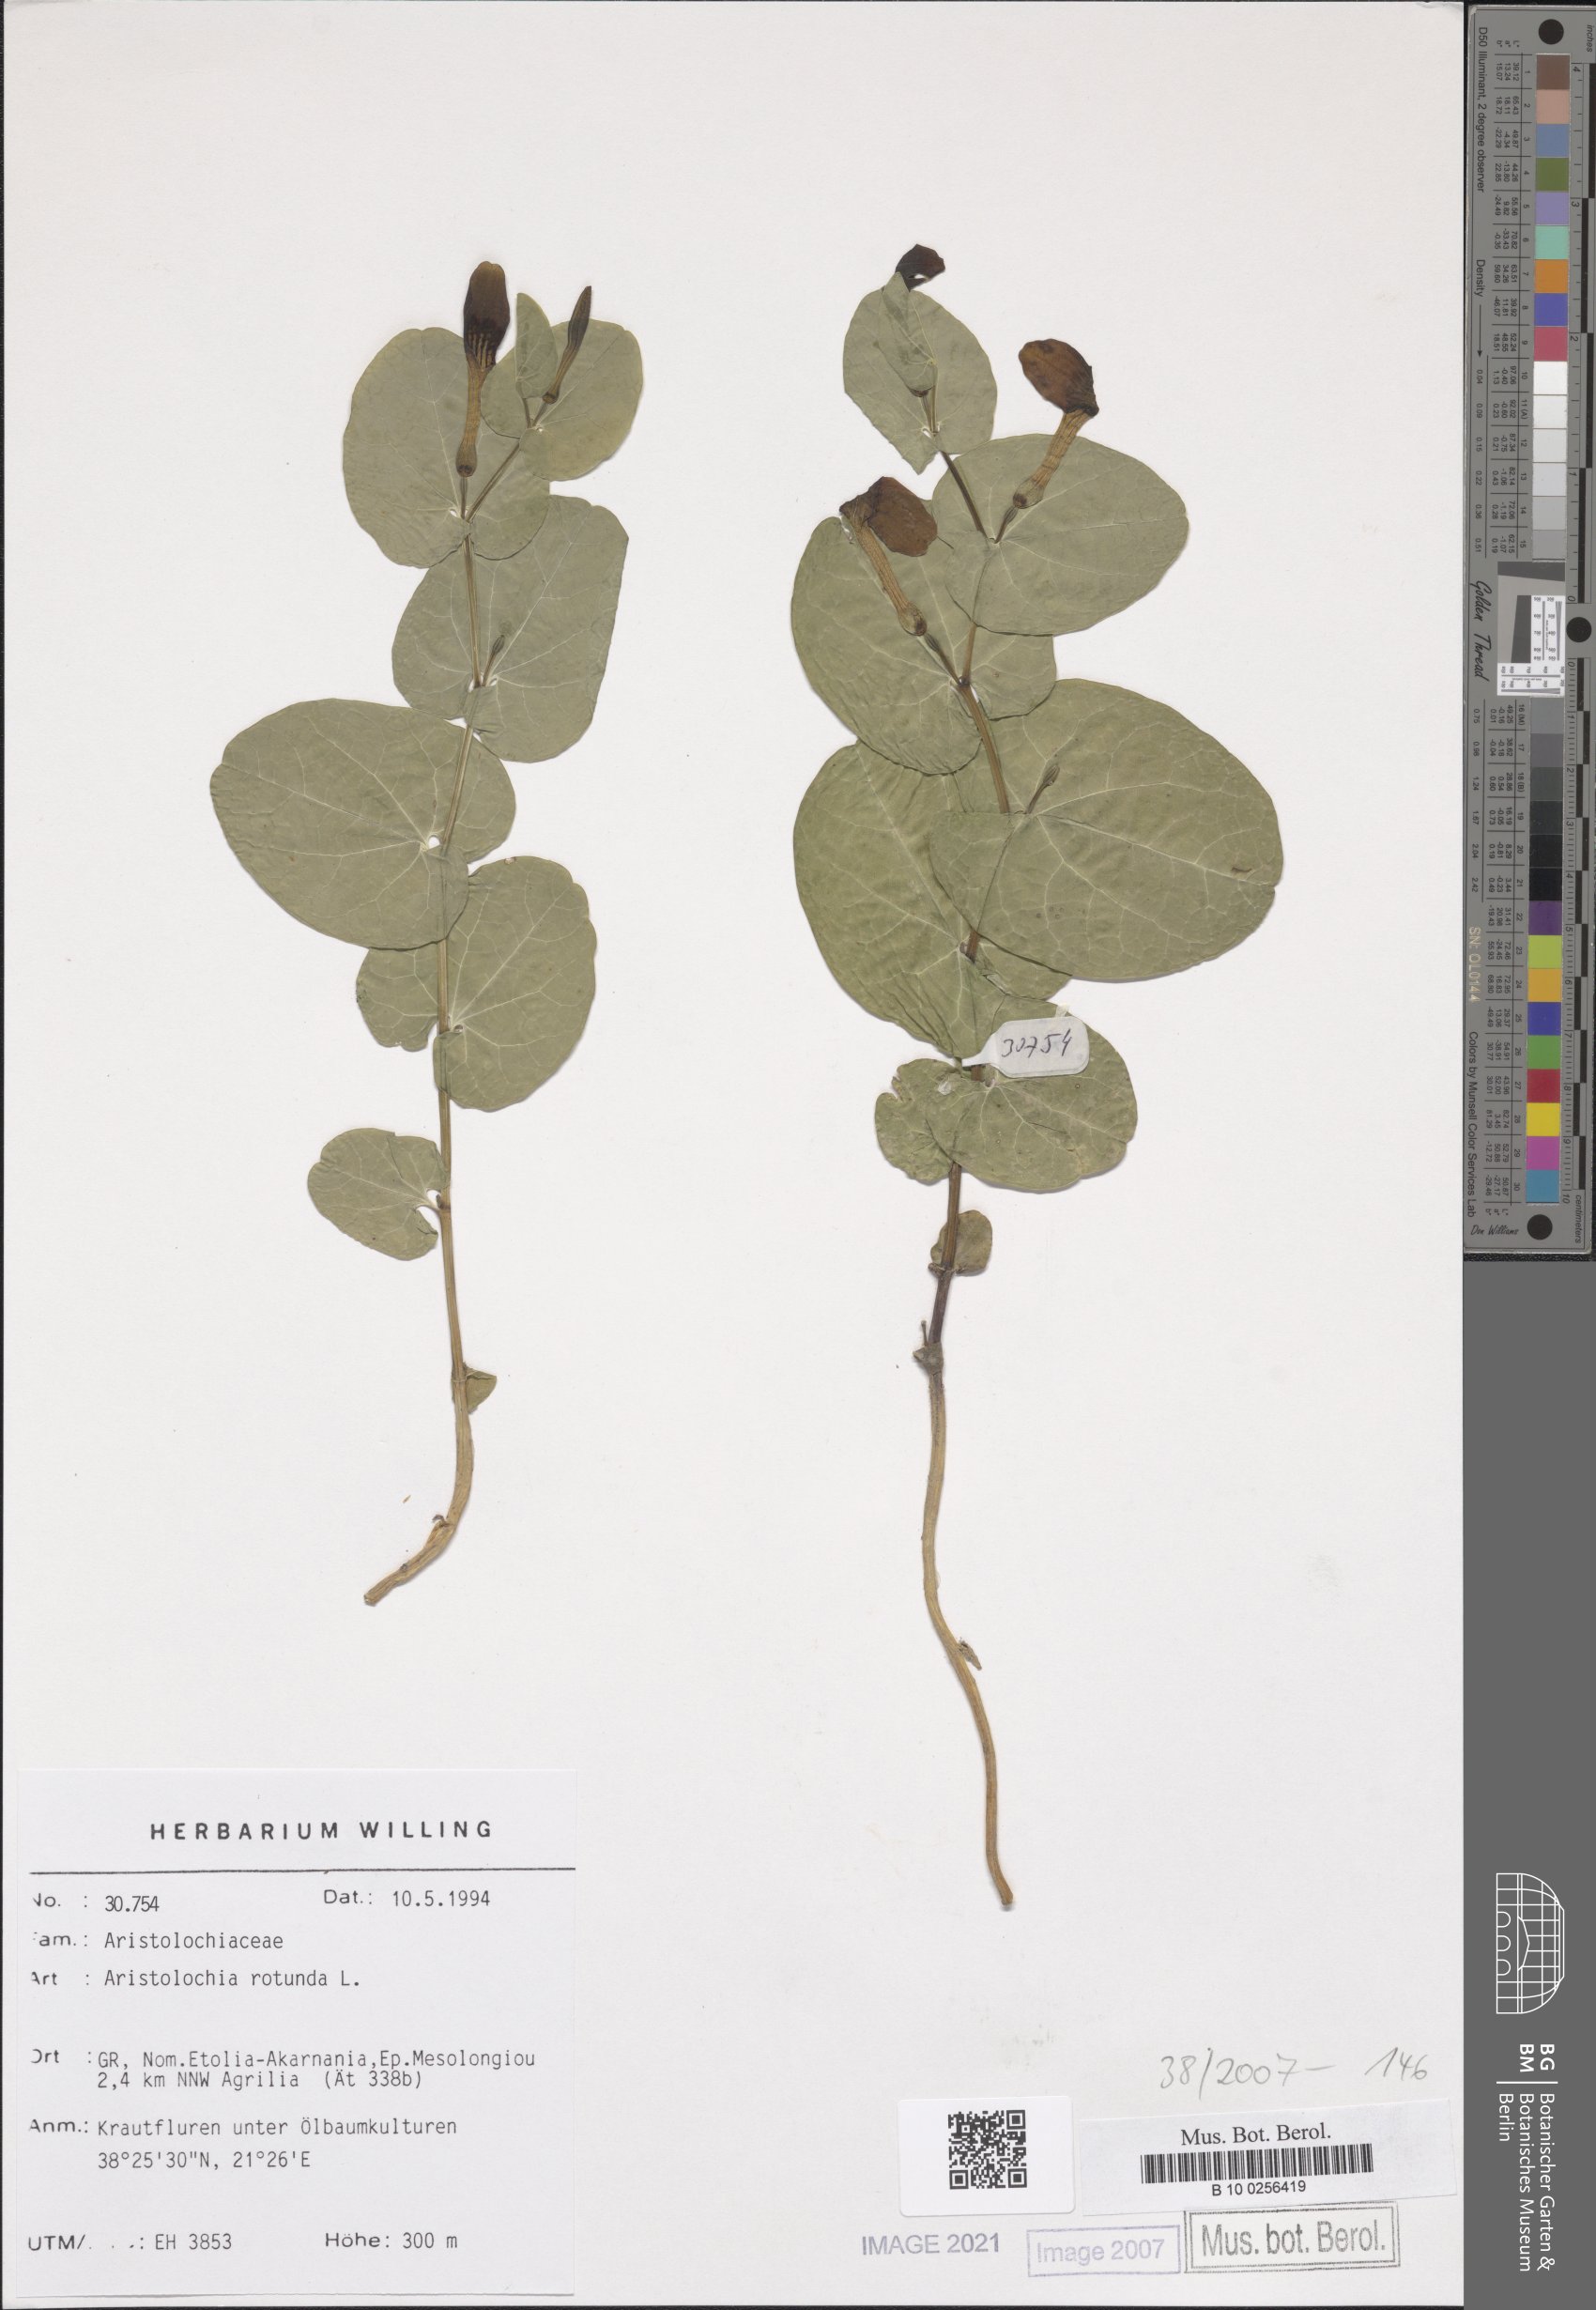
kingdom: Plantae
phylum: Tracheophyta
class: Magnoliopsida
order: Piperales
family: Aristolochiaceae
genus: Aristolochia
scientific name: Aristolochia rotunda
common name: Smearwort
